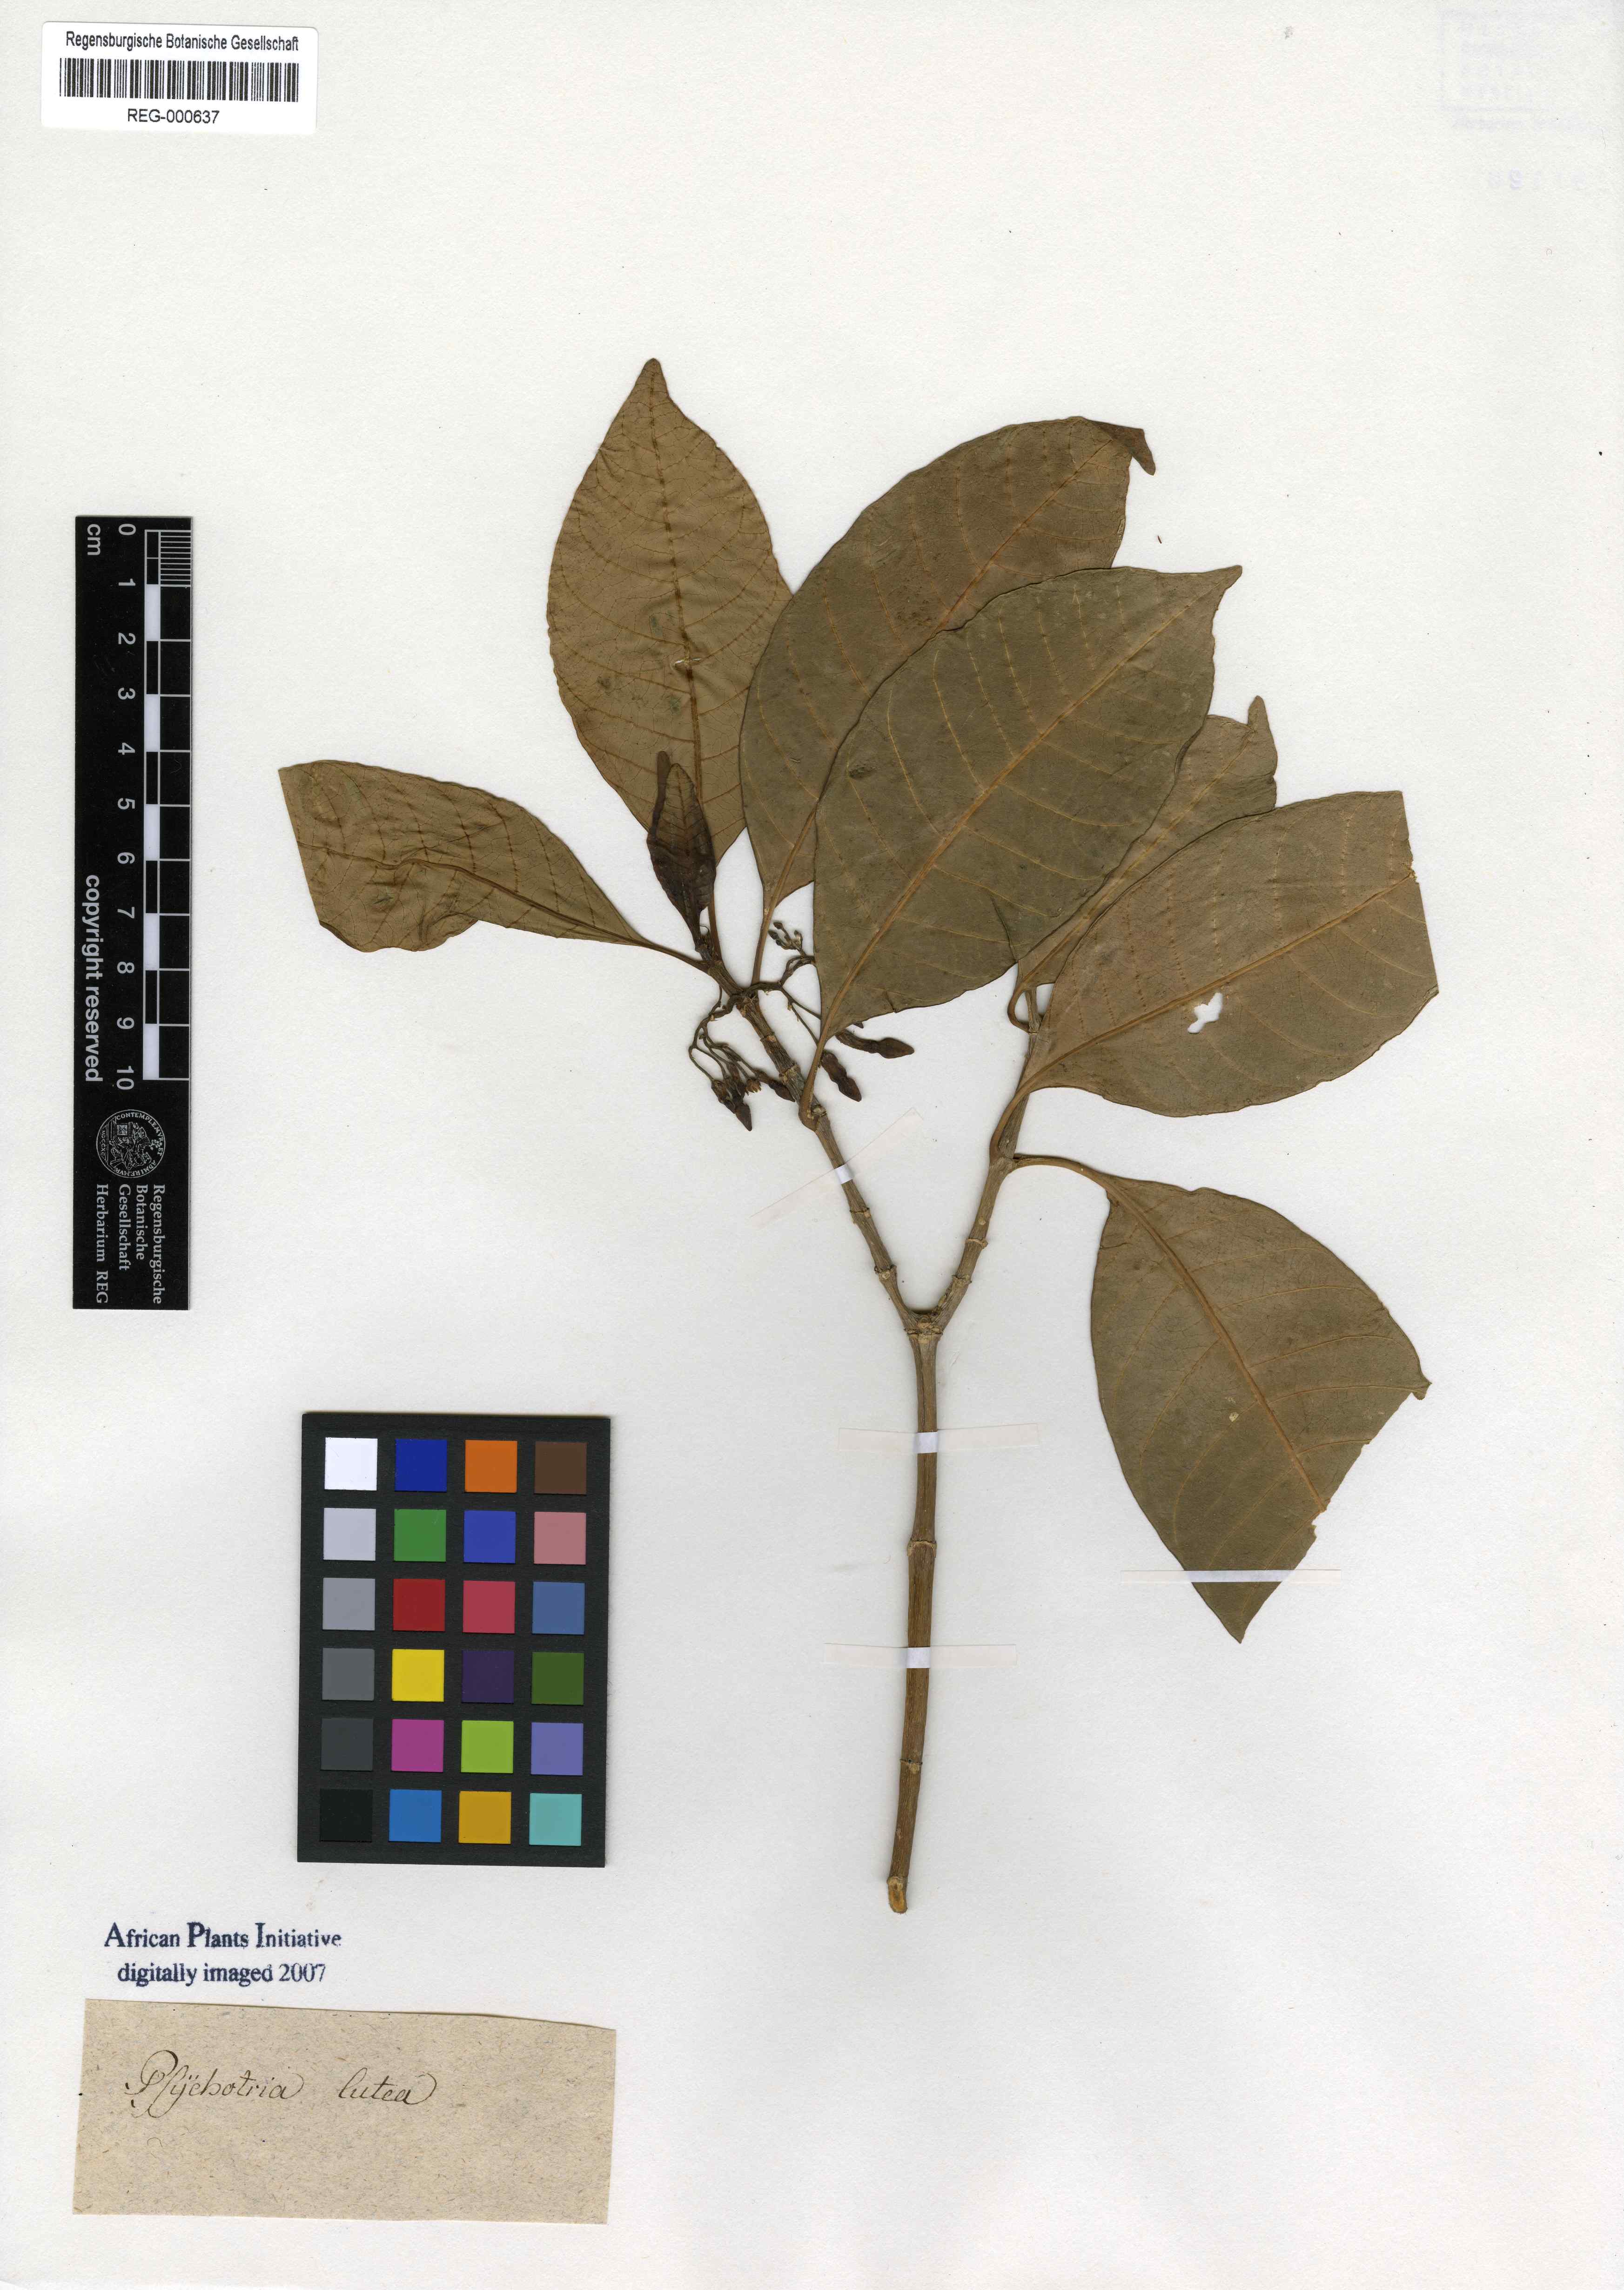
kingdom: Plantae
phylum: Tracheophyta
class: Magnoliopsida
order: Gentianales
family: Rubiaceae
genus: Palicourea
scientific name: Palicourea guianensis
